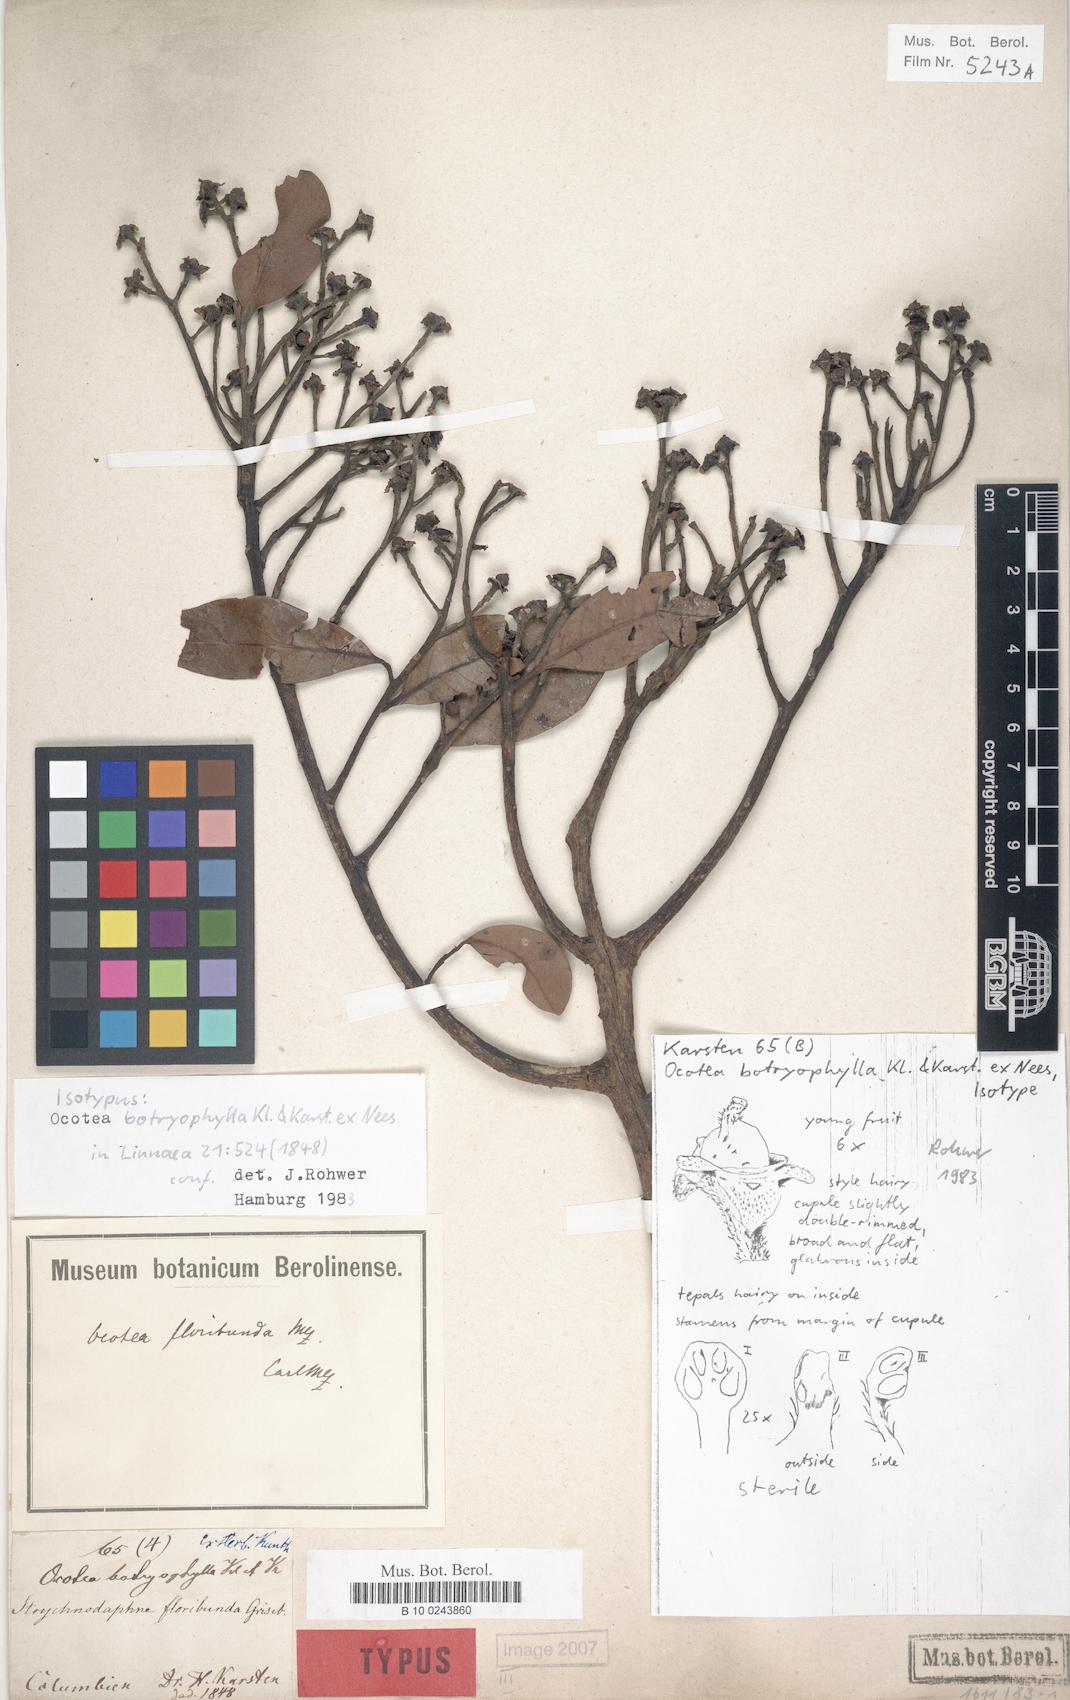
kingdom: Plantae
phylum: Tracheophyta
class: Magnoliopsida
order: Laurales
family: Lauraceae
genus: Ocotea
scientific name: Ocotea floribunda
